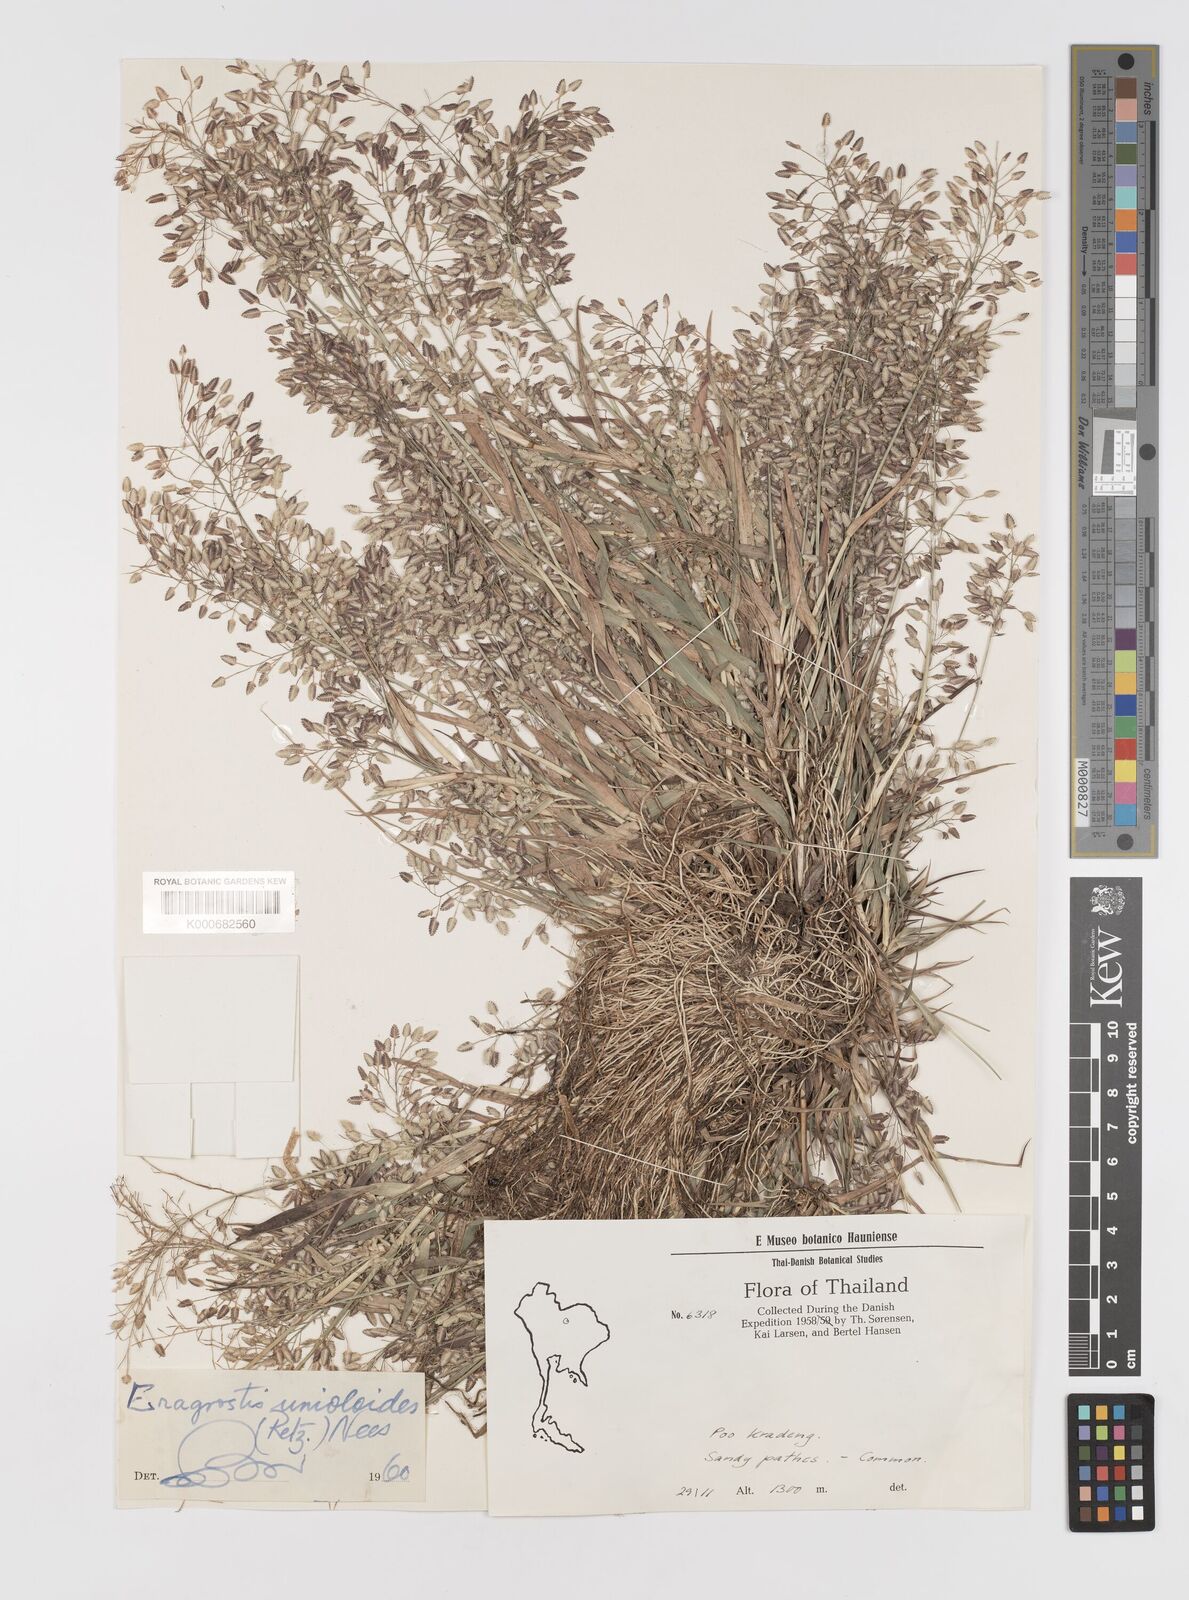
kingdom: Plantae
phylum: Tracheophyta
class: Liliopsida
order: Poales
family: Poaceae
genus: Eragrostis
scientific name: Eragrostis unioloides
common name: Chinese lovegrass
